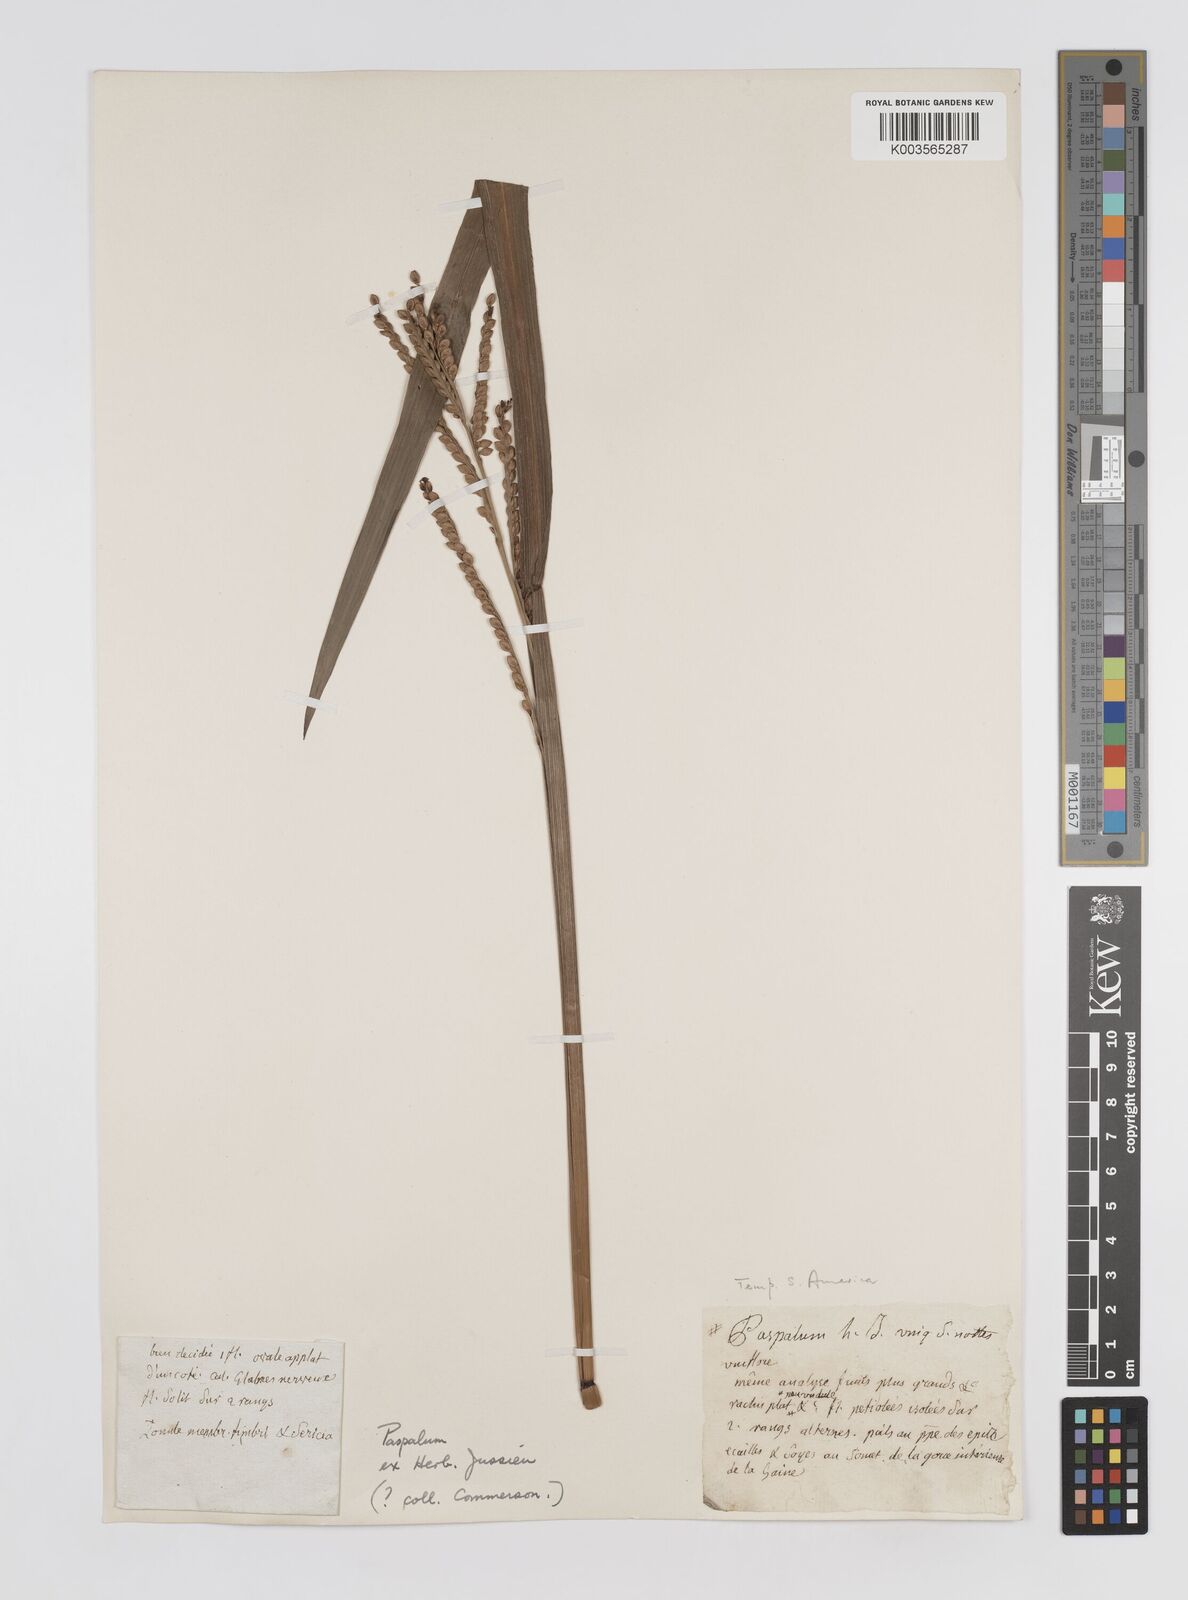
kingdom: Plantae
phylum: Tracheophyta
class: Liliopsida
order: Poales
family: Poaceae
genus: Paspalum
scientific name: Paspalum guenoarum
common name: Wintergreen paspalum
